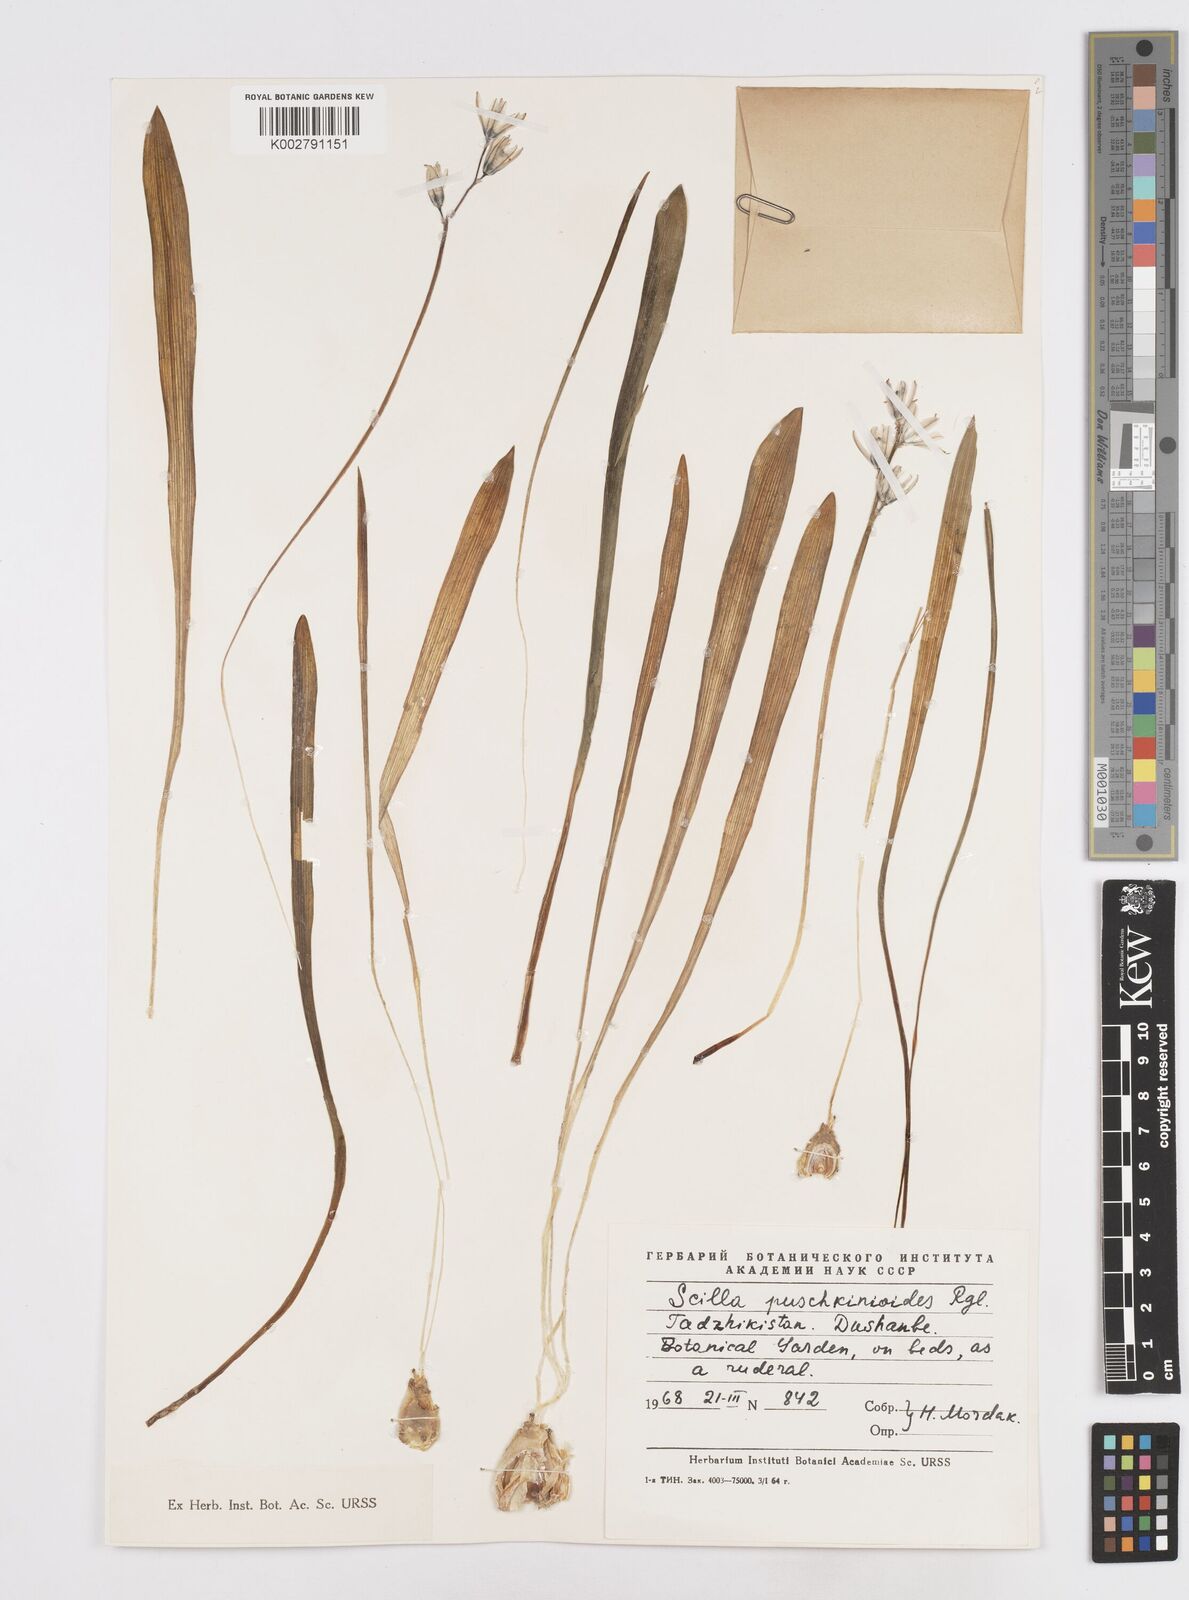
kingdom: Plantae
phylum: Tracheophyta
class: Liliopsida
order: Asparagales
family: Asparagaceae
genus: Fessia
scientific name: Fessia puschkinioides
